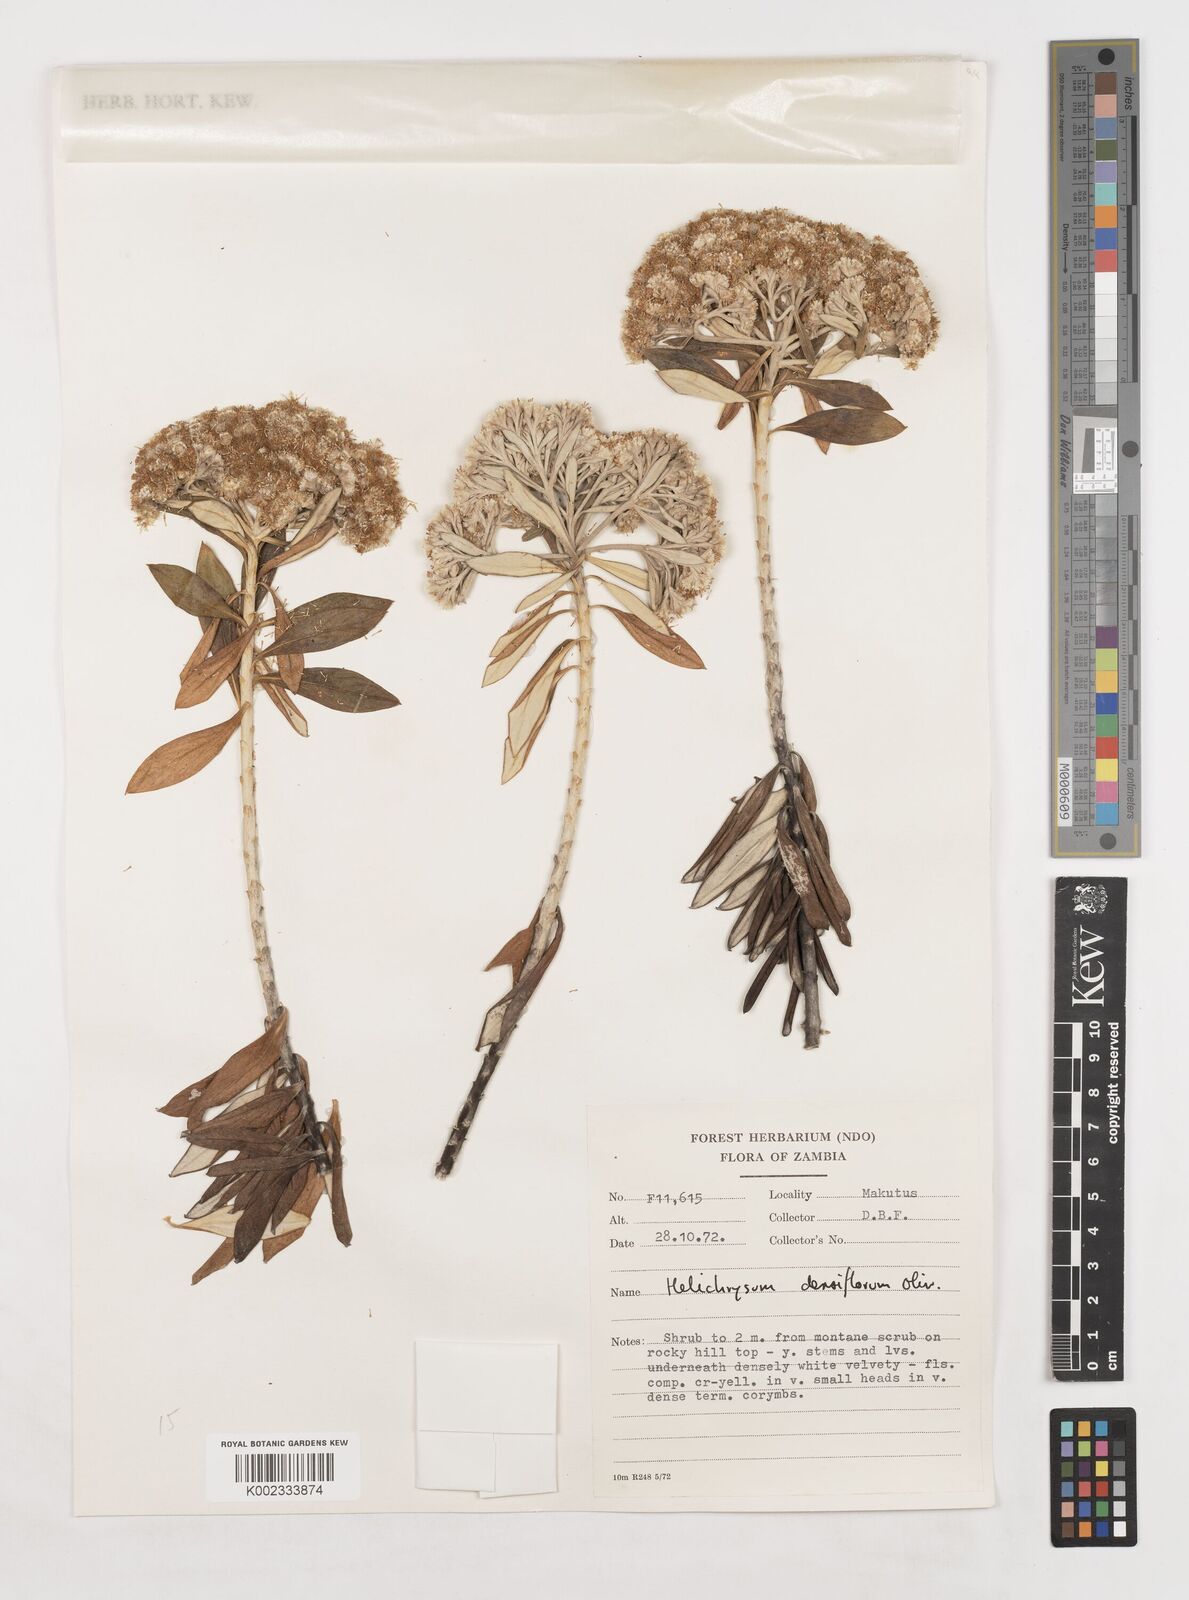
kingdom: Plantae
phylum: Tracheophyta
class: Magnoliopsida
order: Asterales
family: Asteraceae
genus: Helichrysum
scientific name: Helichrysum densiflorum
